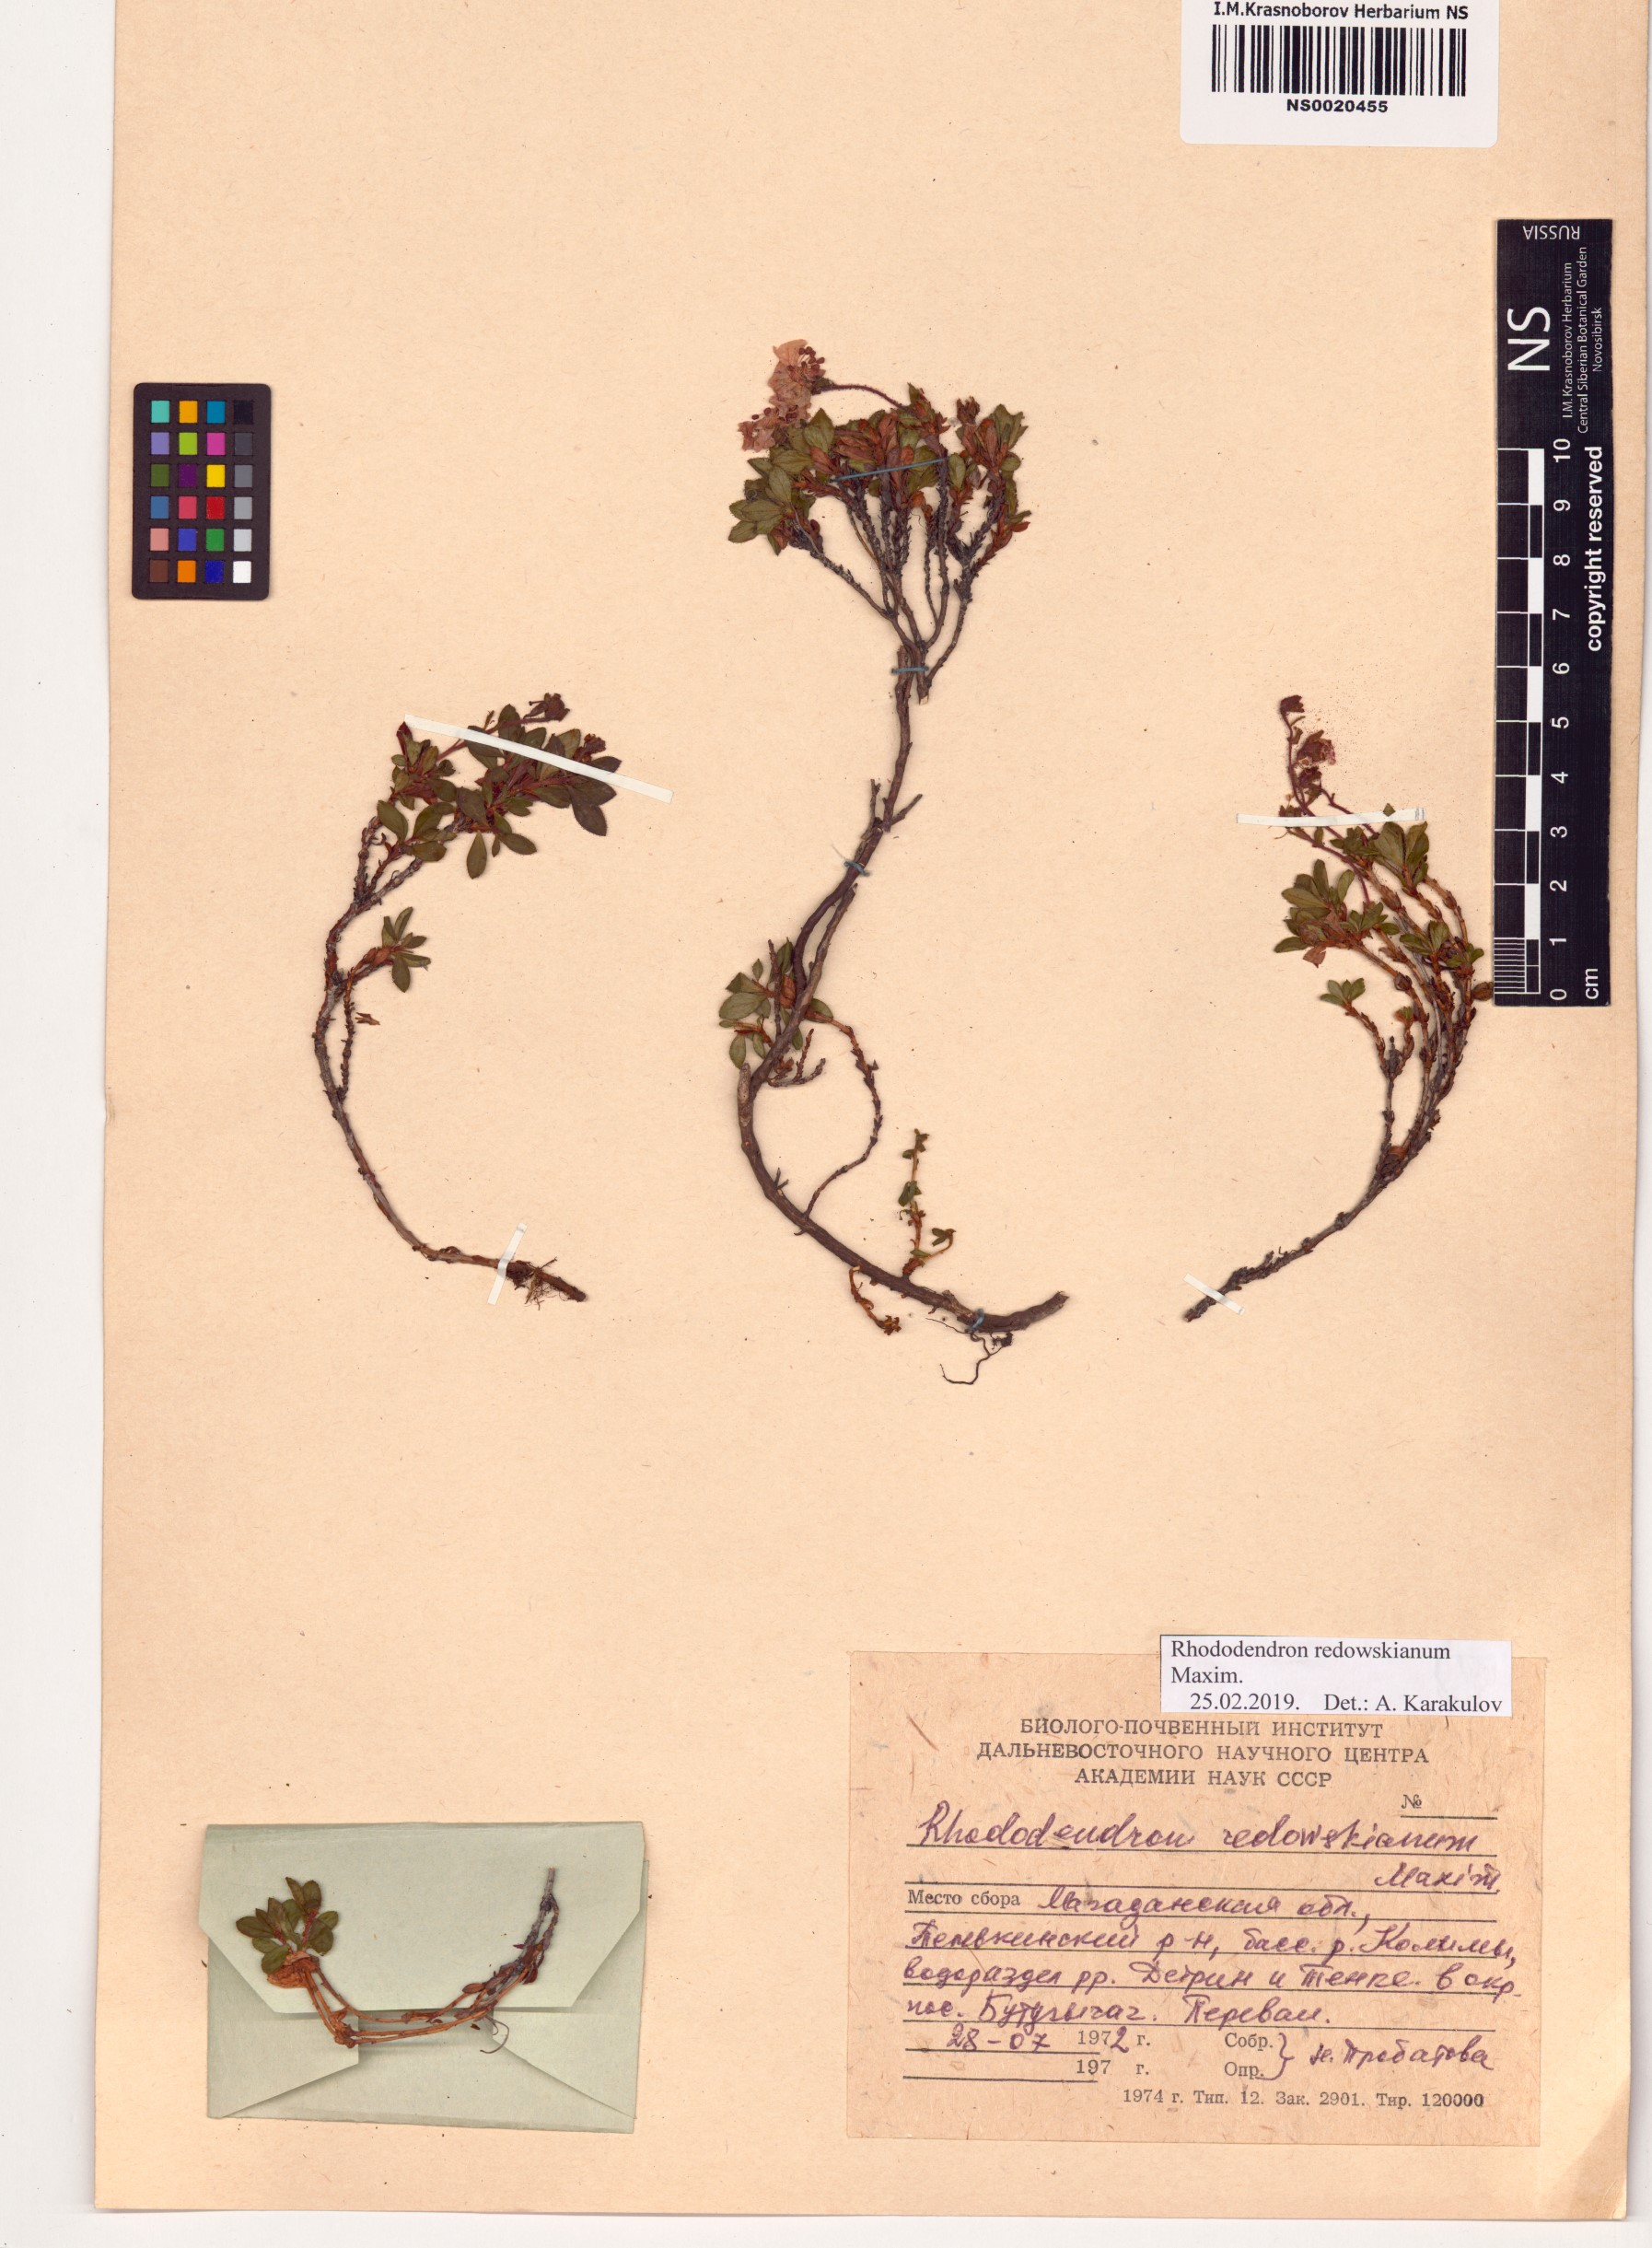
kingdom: Plantae
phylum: Tracheophyta
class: Magnoliopsida
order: Ericales
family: Ericaceae
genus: Rhododendron
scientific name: Rhododendron redowskianum
